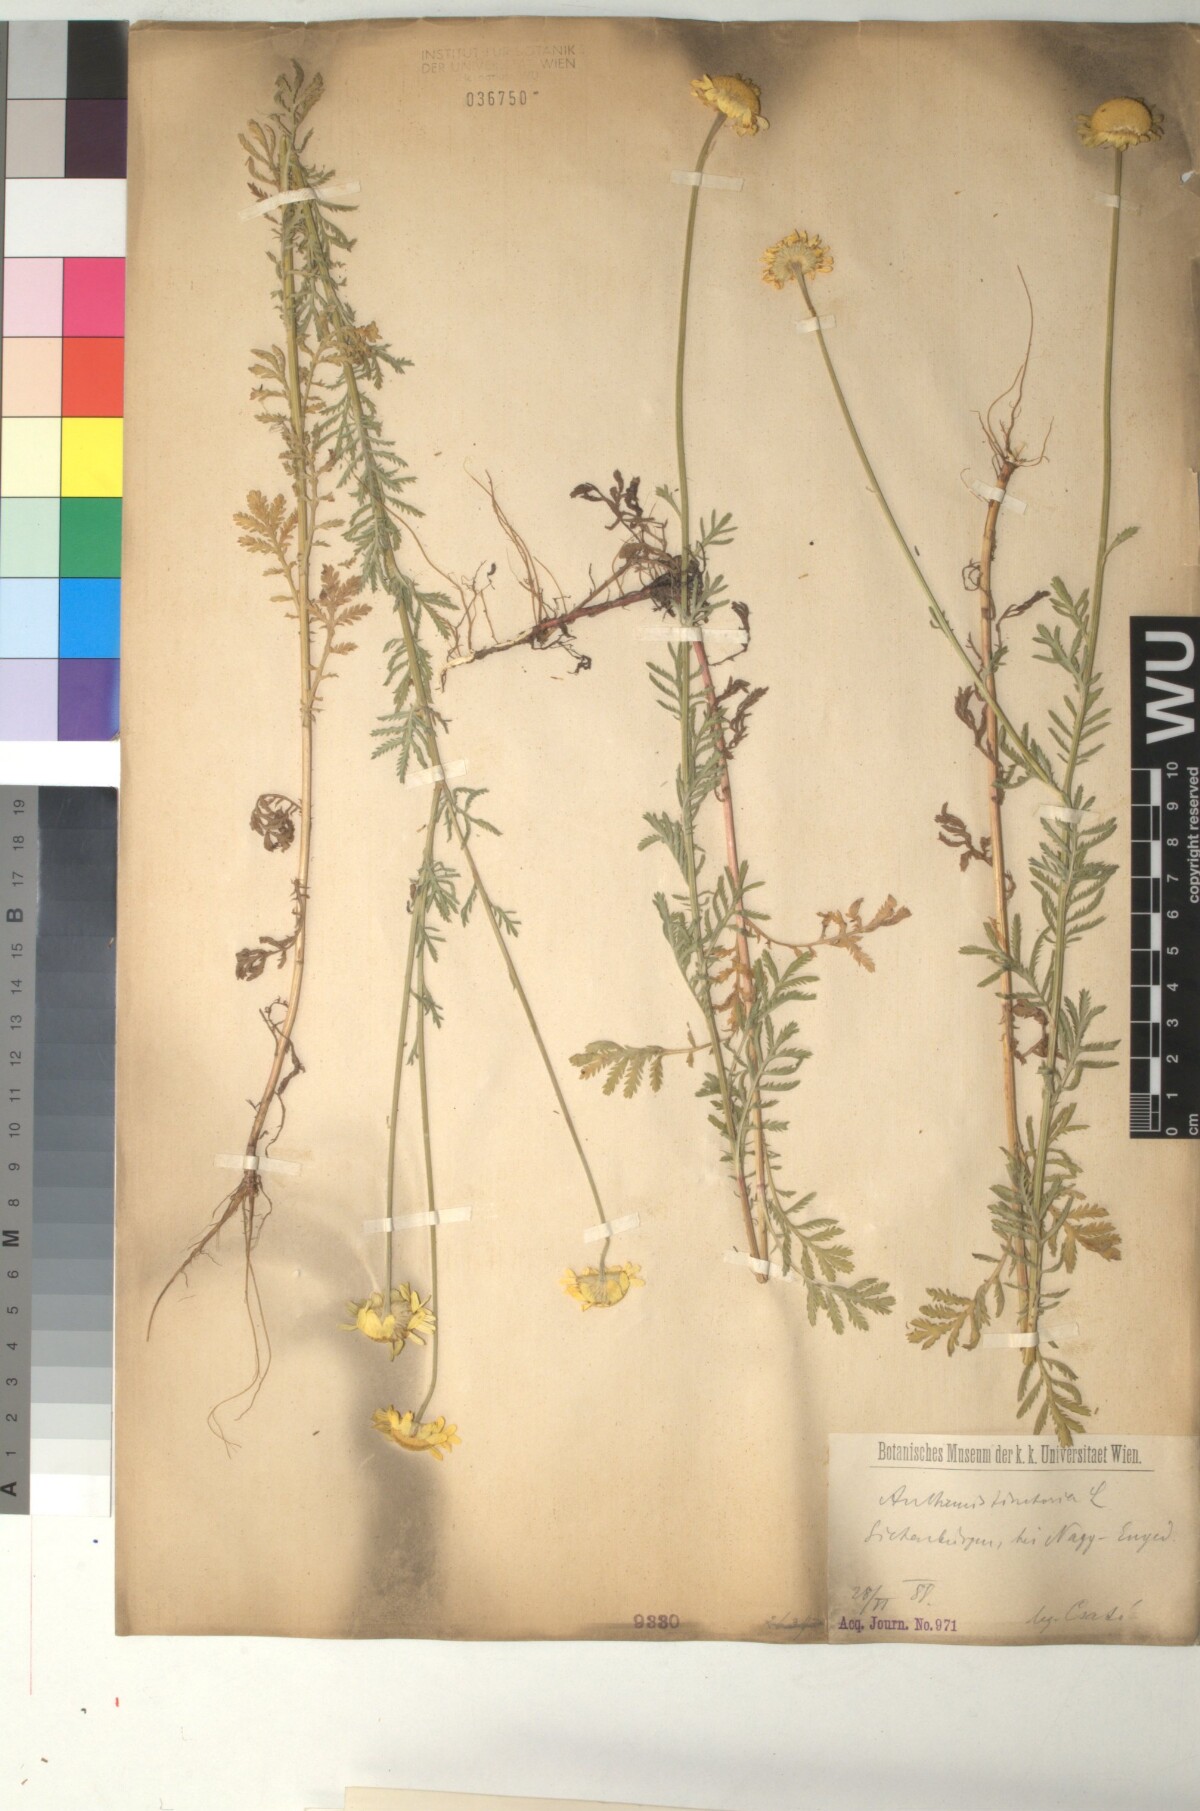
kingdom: Plantae
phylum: Tracheophyta
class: Magnoliopsida
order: Asterales
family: Asteraceae
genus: Cota
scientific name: Cota tinctoria
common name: Golden chamomile
